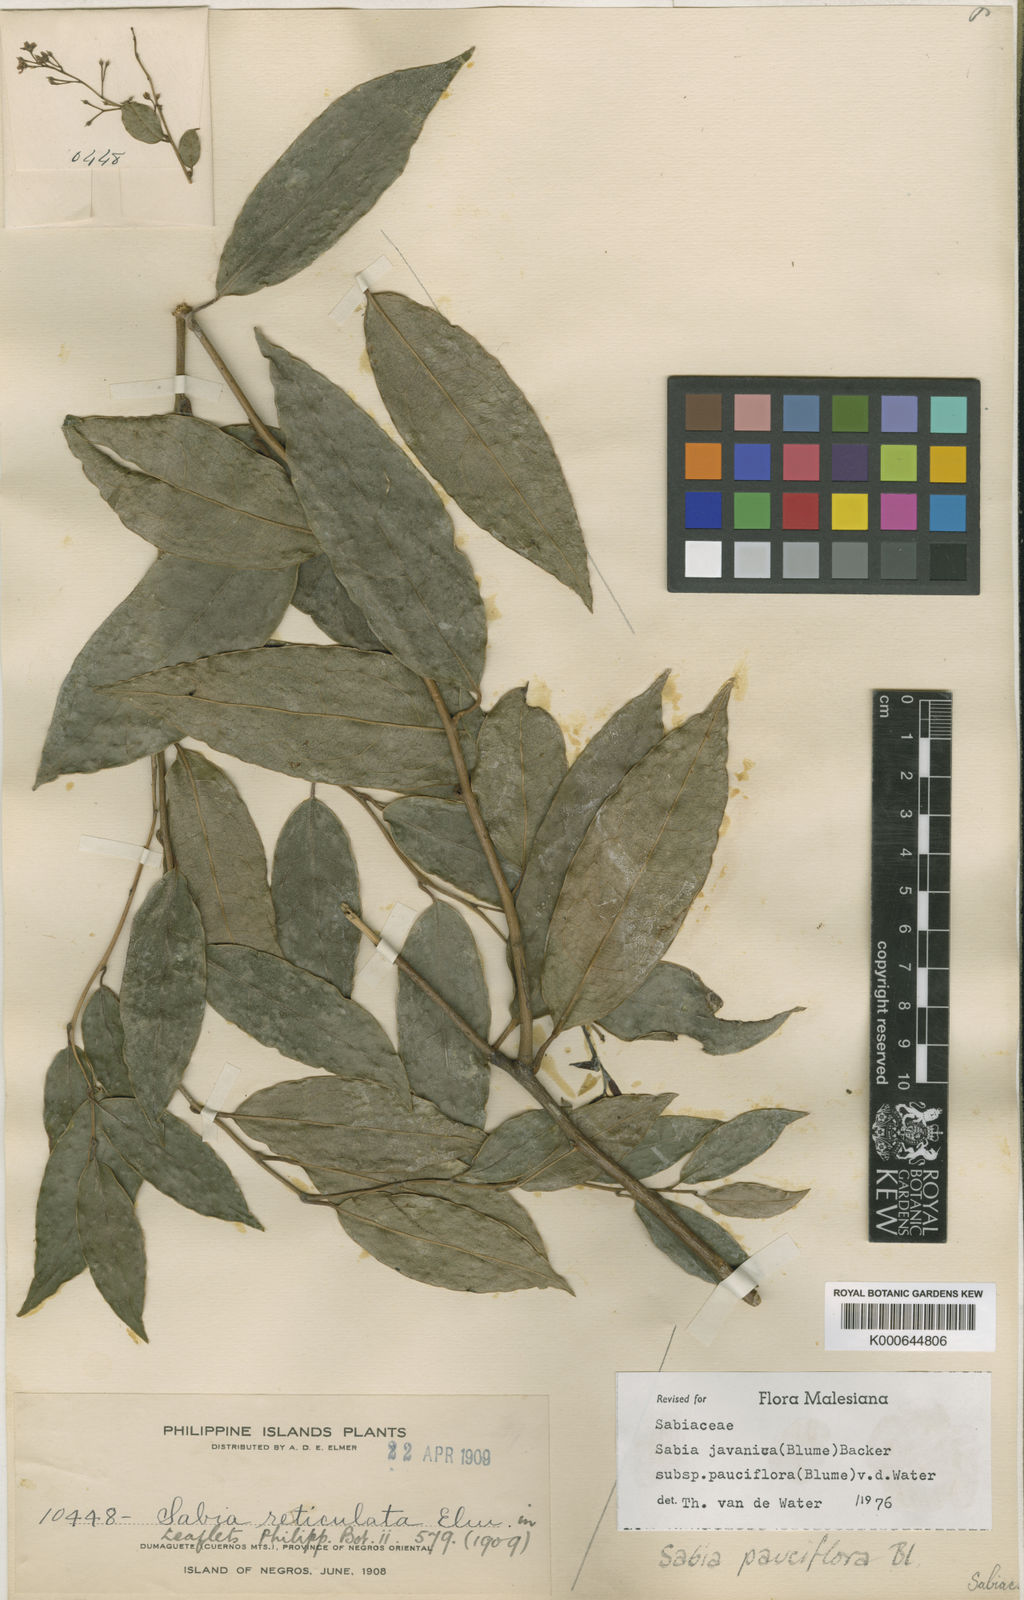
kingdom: Plantae
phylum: Tracheophyta
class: Magnoliopsida
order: Proteales
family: Sabiaceae
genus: Sabia
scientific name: Sabia pauciflora
